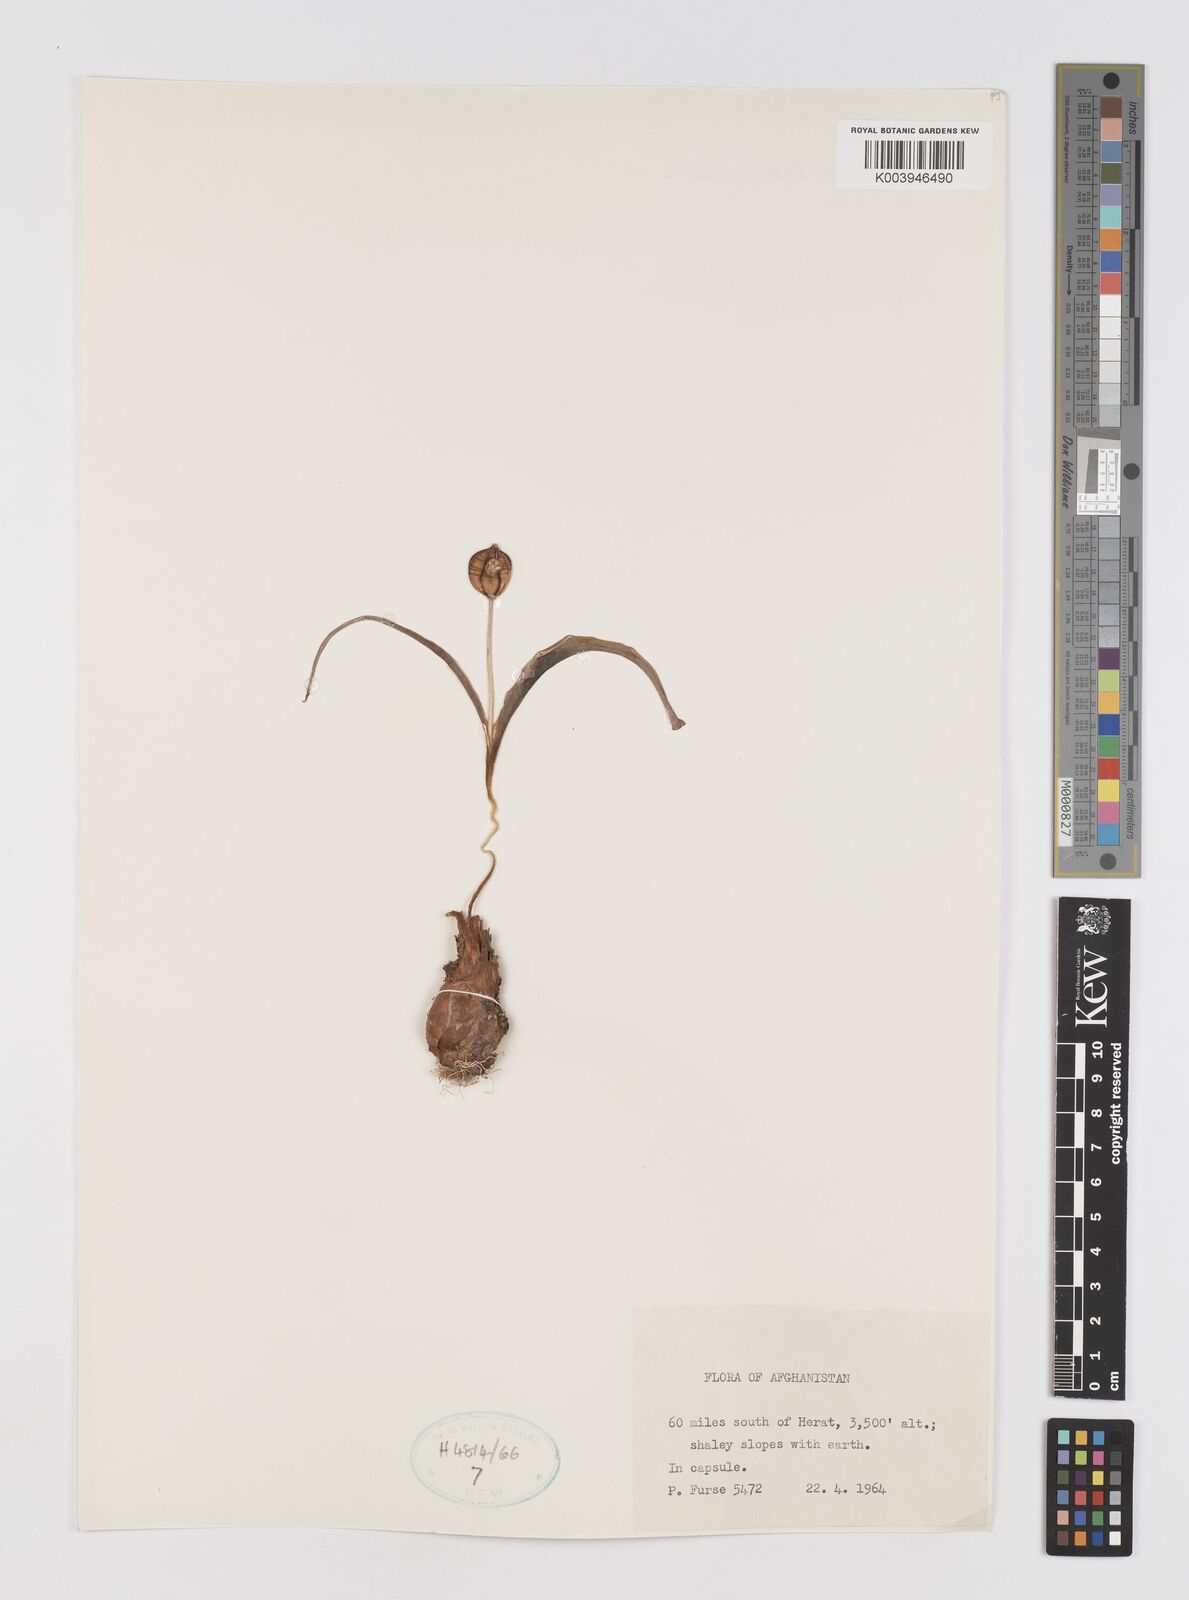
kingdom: Plantae
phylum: Tracheophyta
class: Liliopsida
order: Liliales
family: Liliaceae
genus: Tulipa
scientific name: Tulipa
